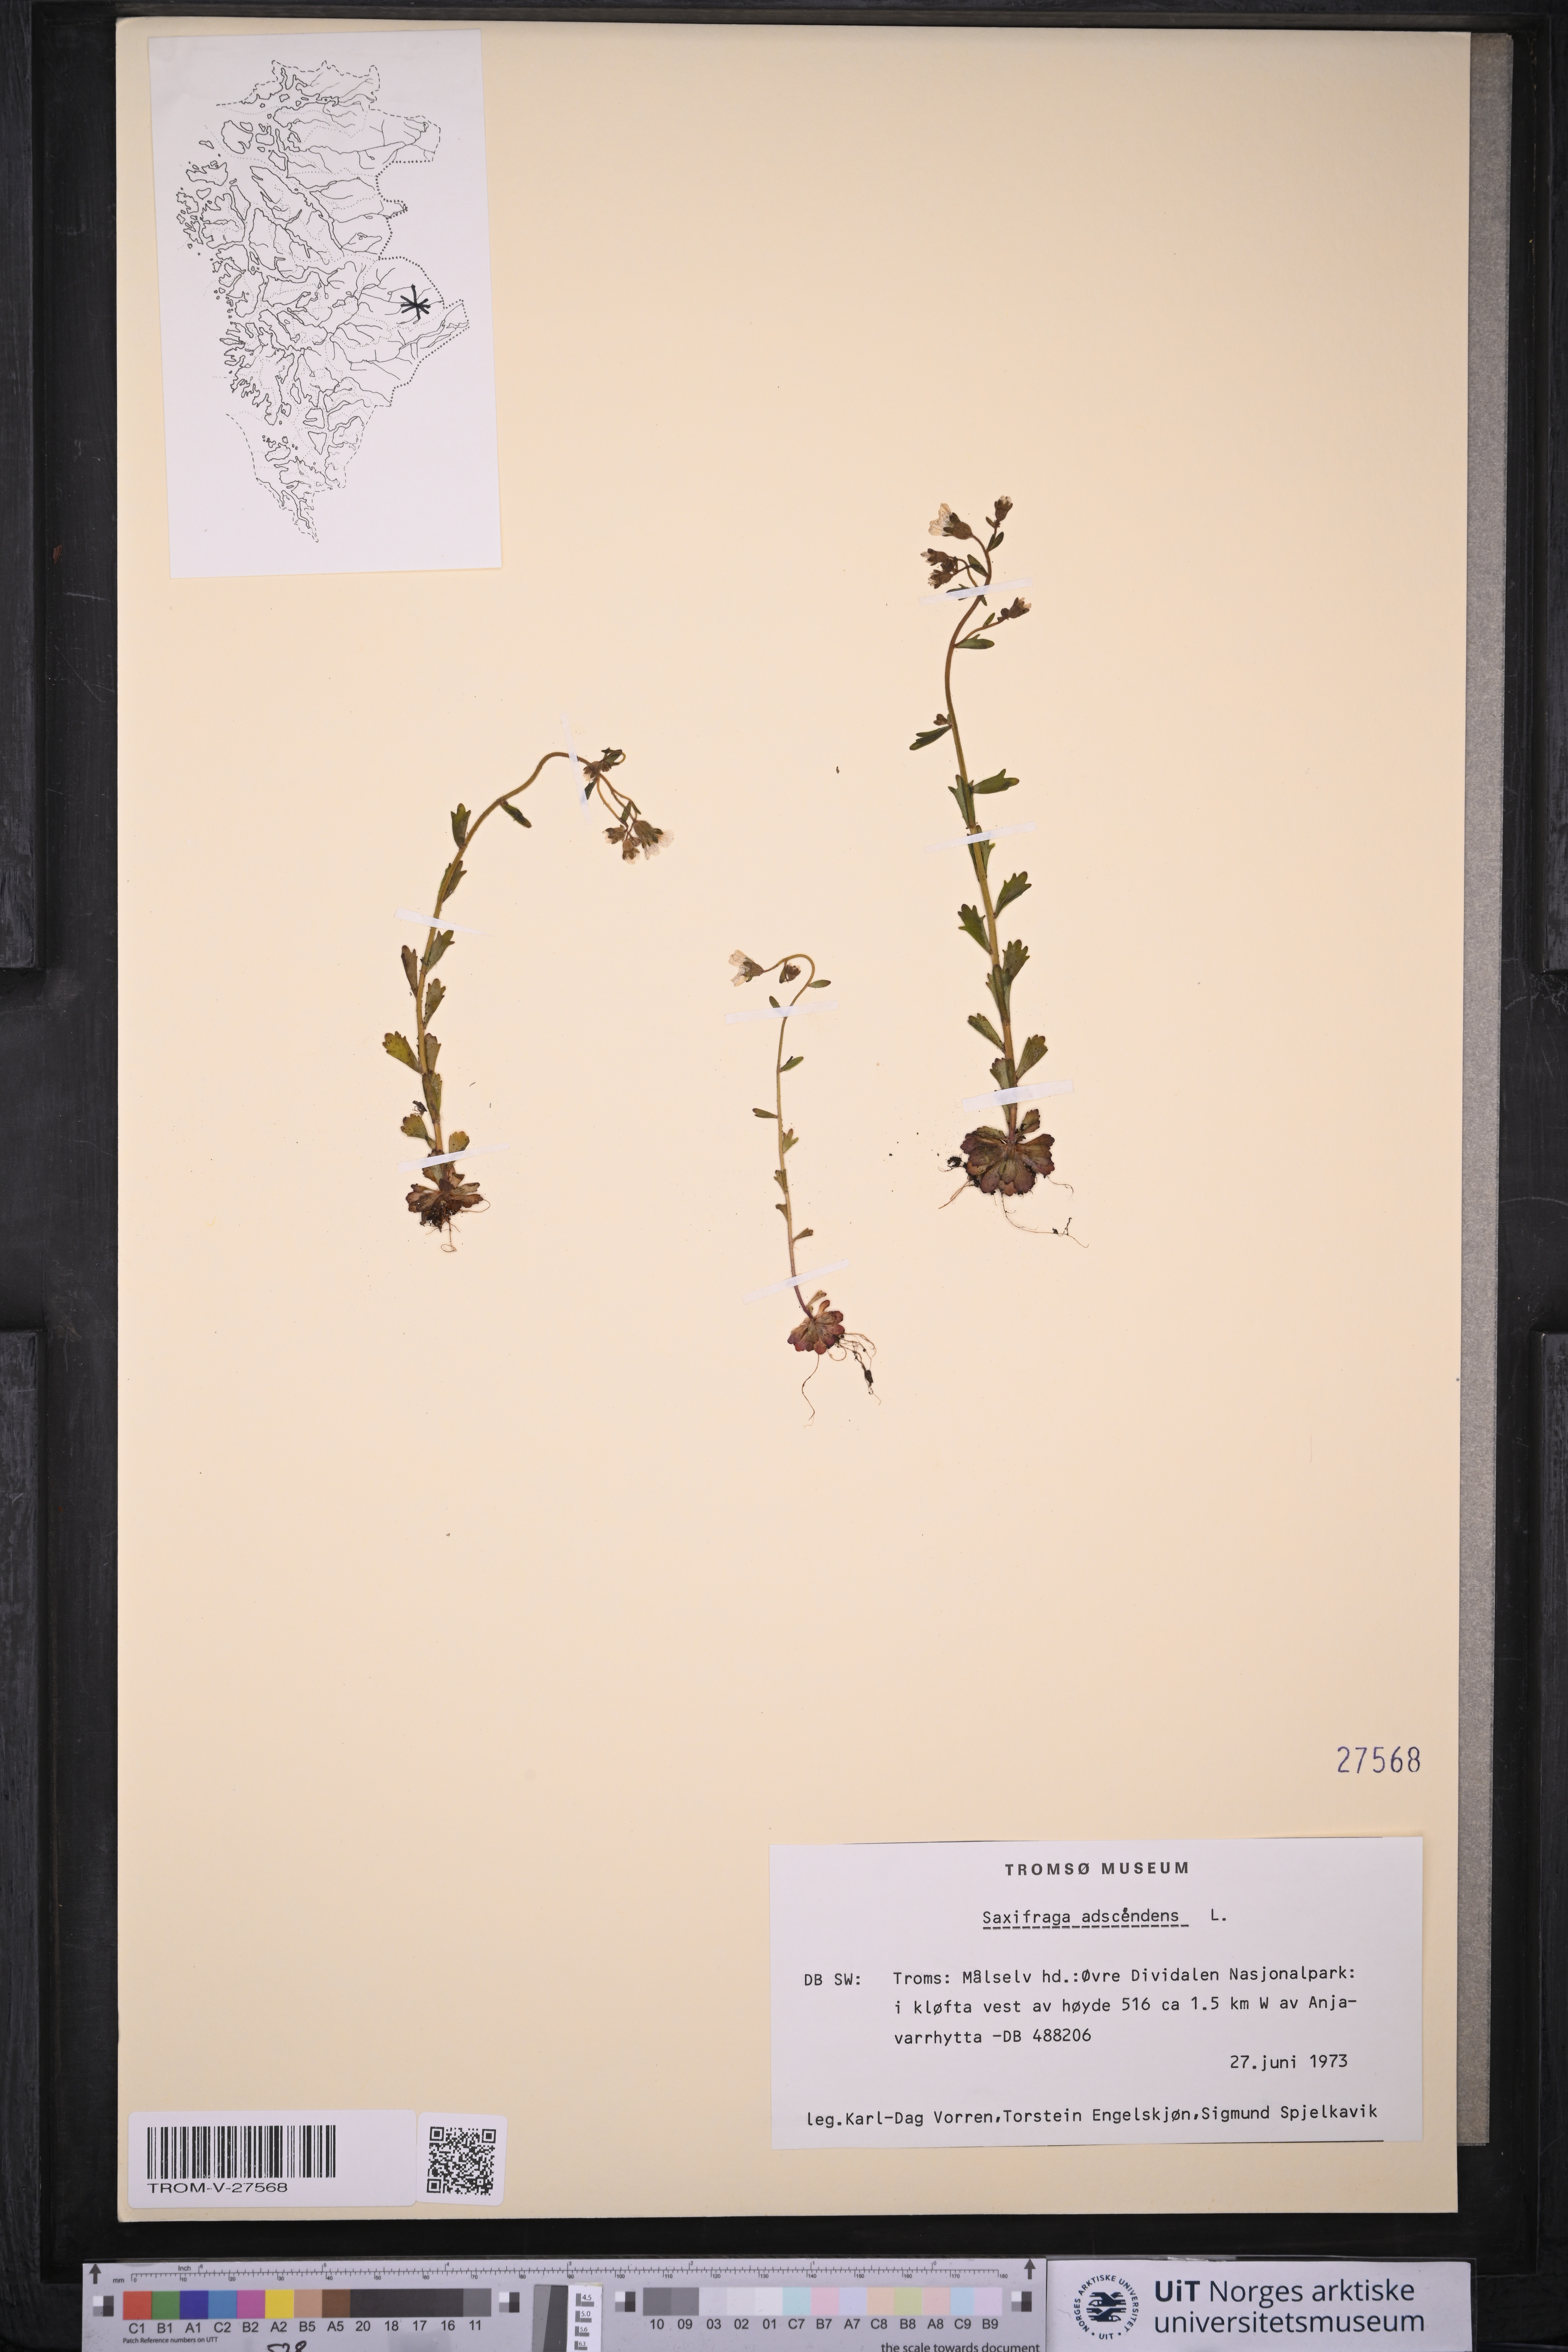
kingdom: Plantae
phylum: Tracheophyta
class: Magnoliopsida
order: Saxifragales
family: Saxifragaceae
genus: Saxifraga
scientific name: Saxifraga adscendens
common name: Ascending saxifrage
